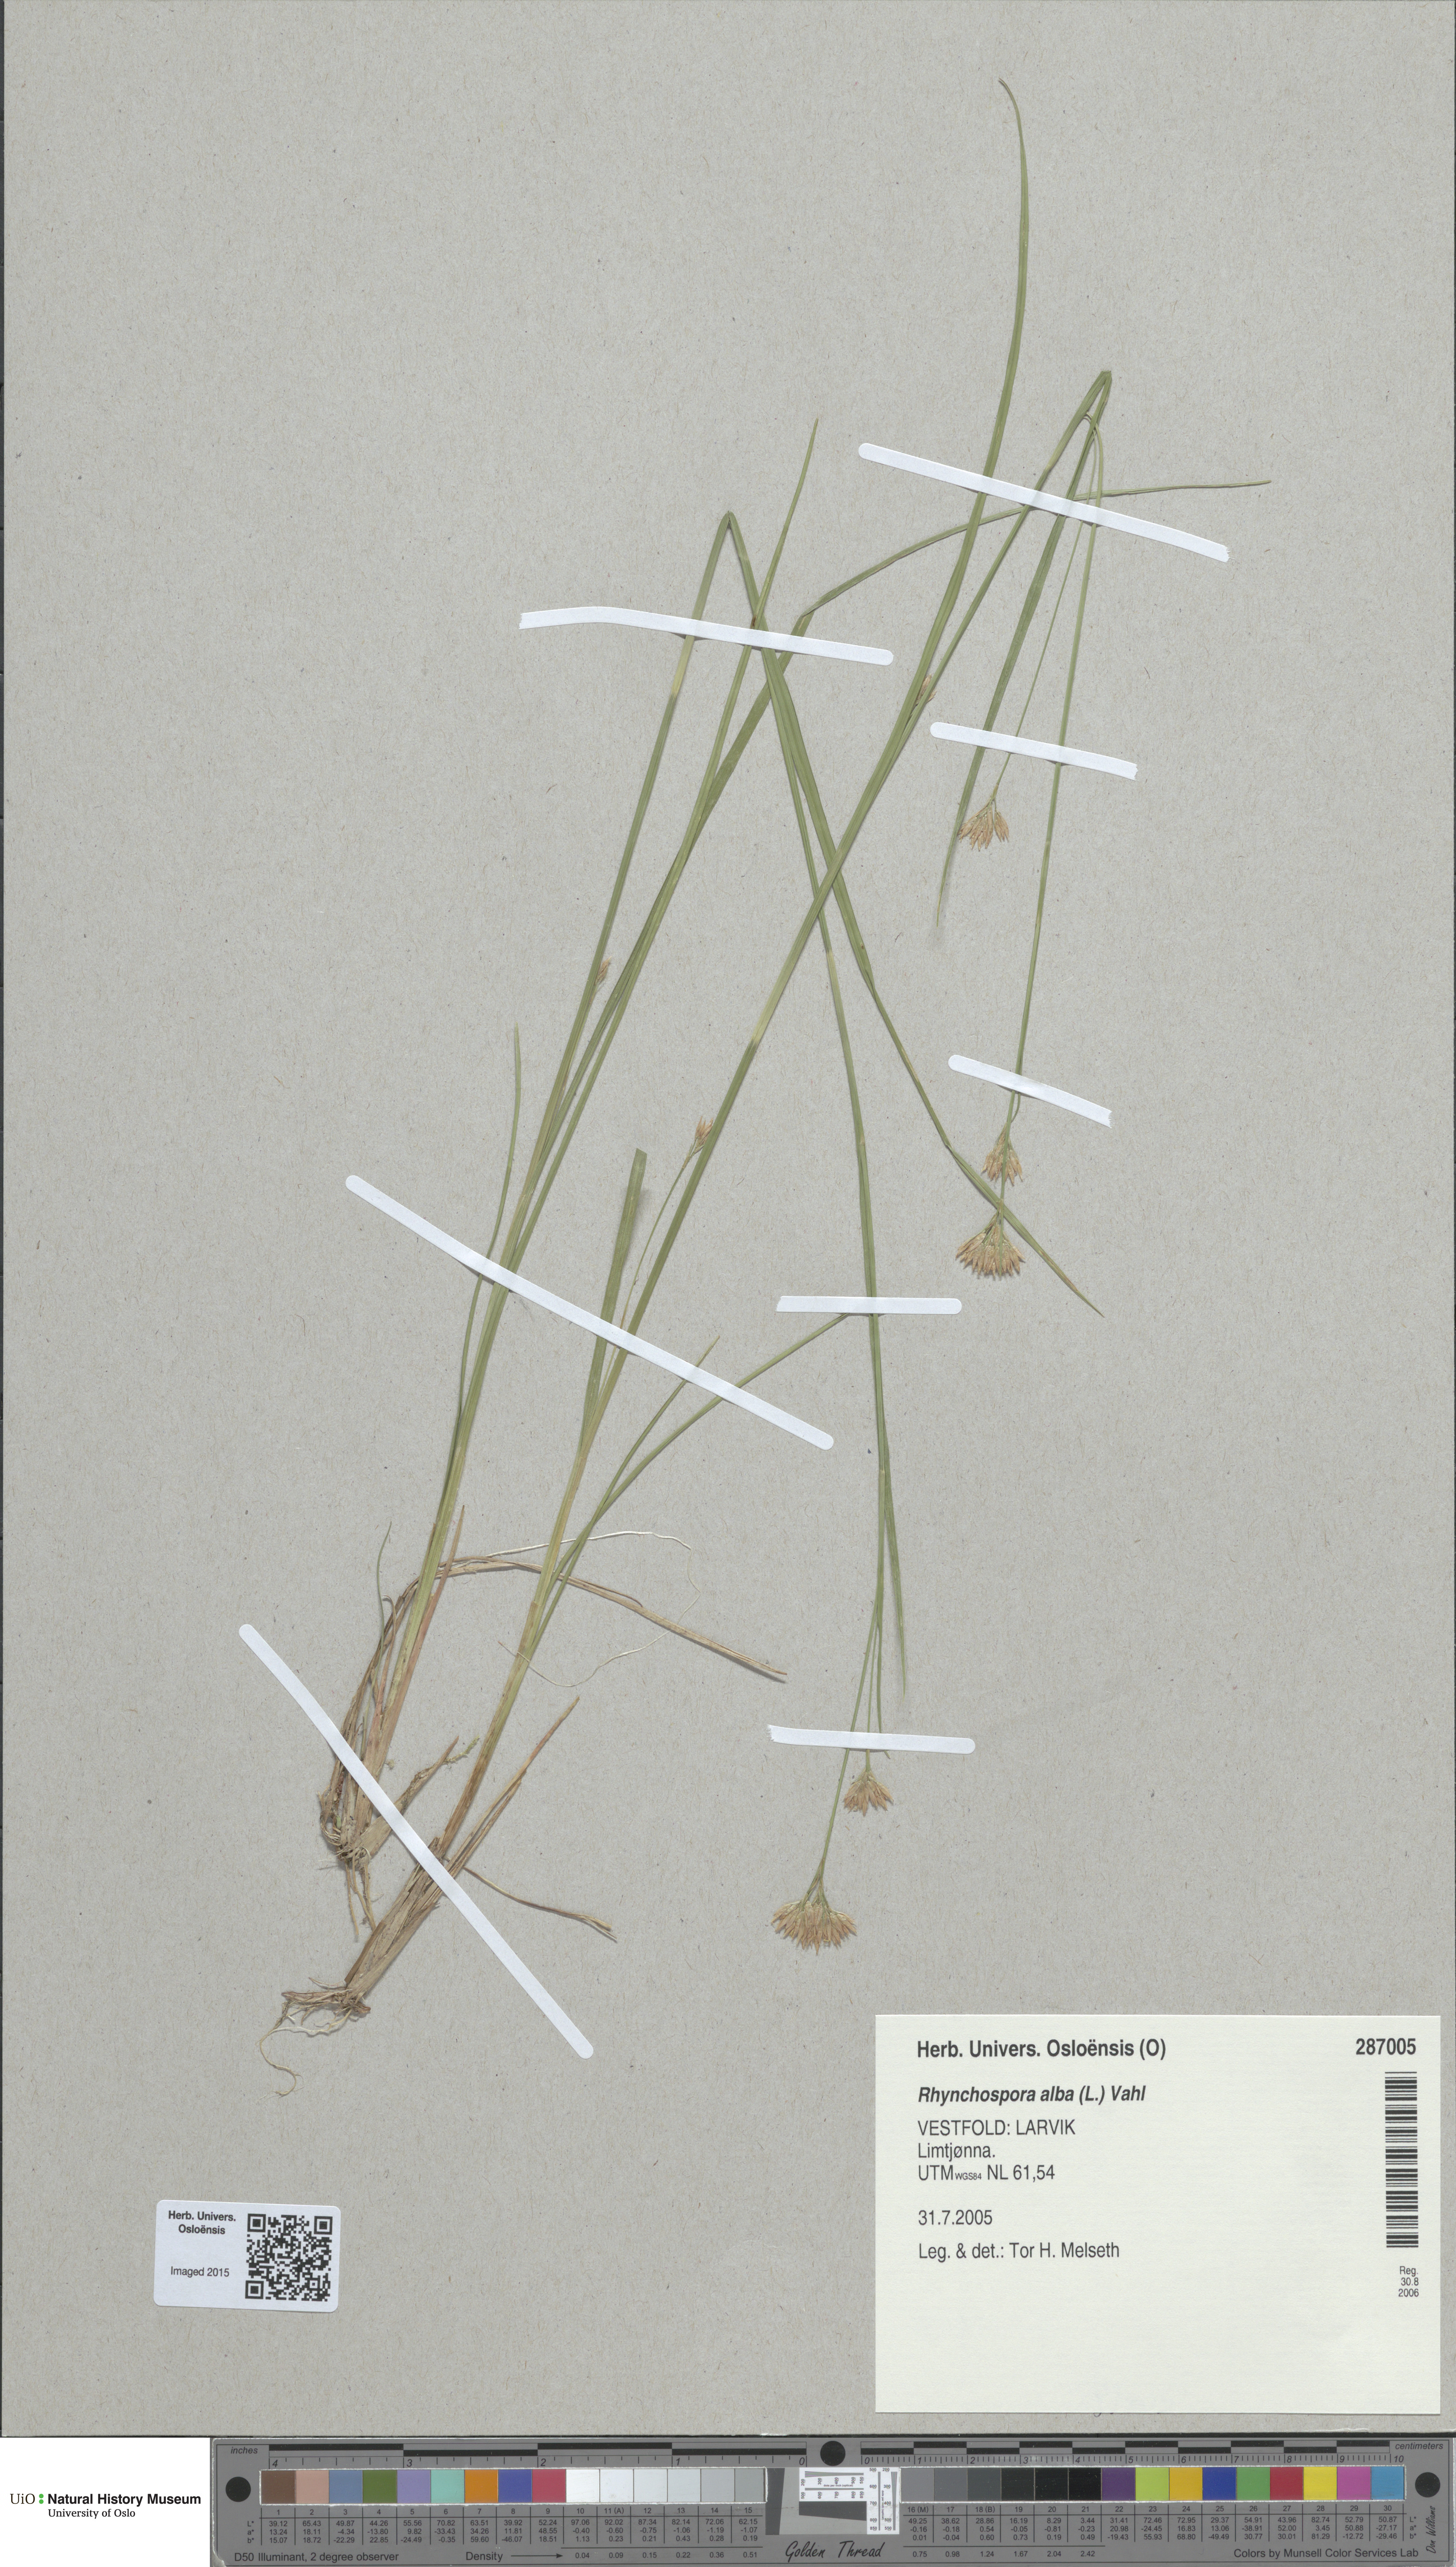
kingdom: Plantae
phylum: Tracheophyta
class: Liliopsida
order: Poales
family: Cyperaceae
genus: Rhynchospora
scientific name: Rhynchospora alba
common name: White beak-sedge
